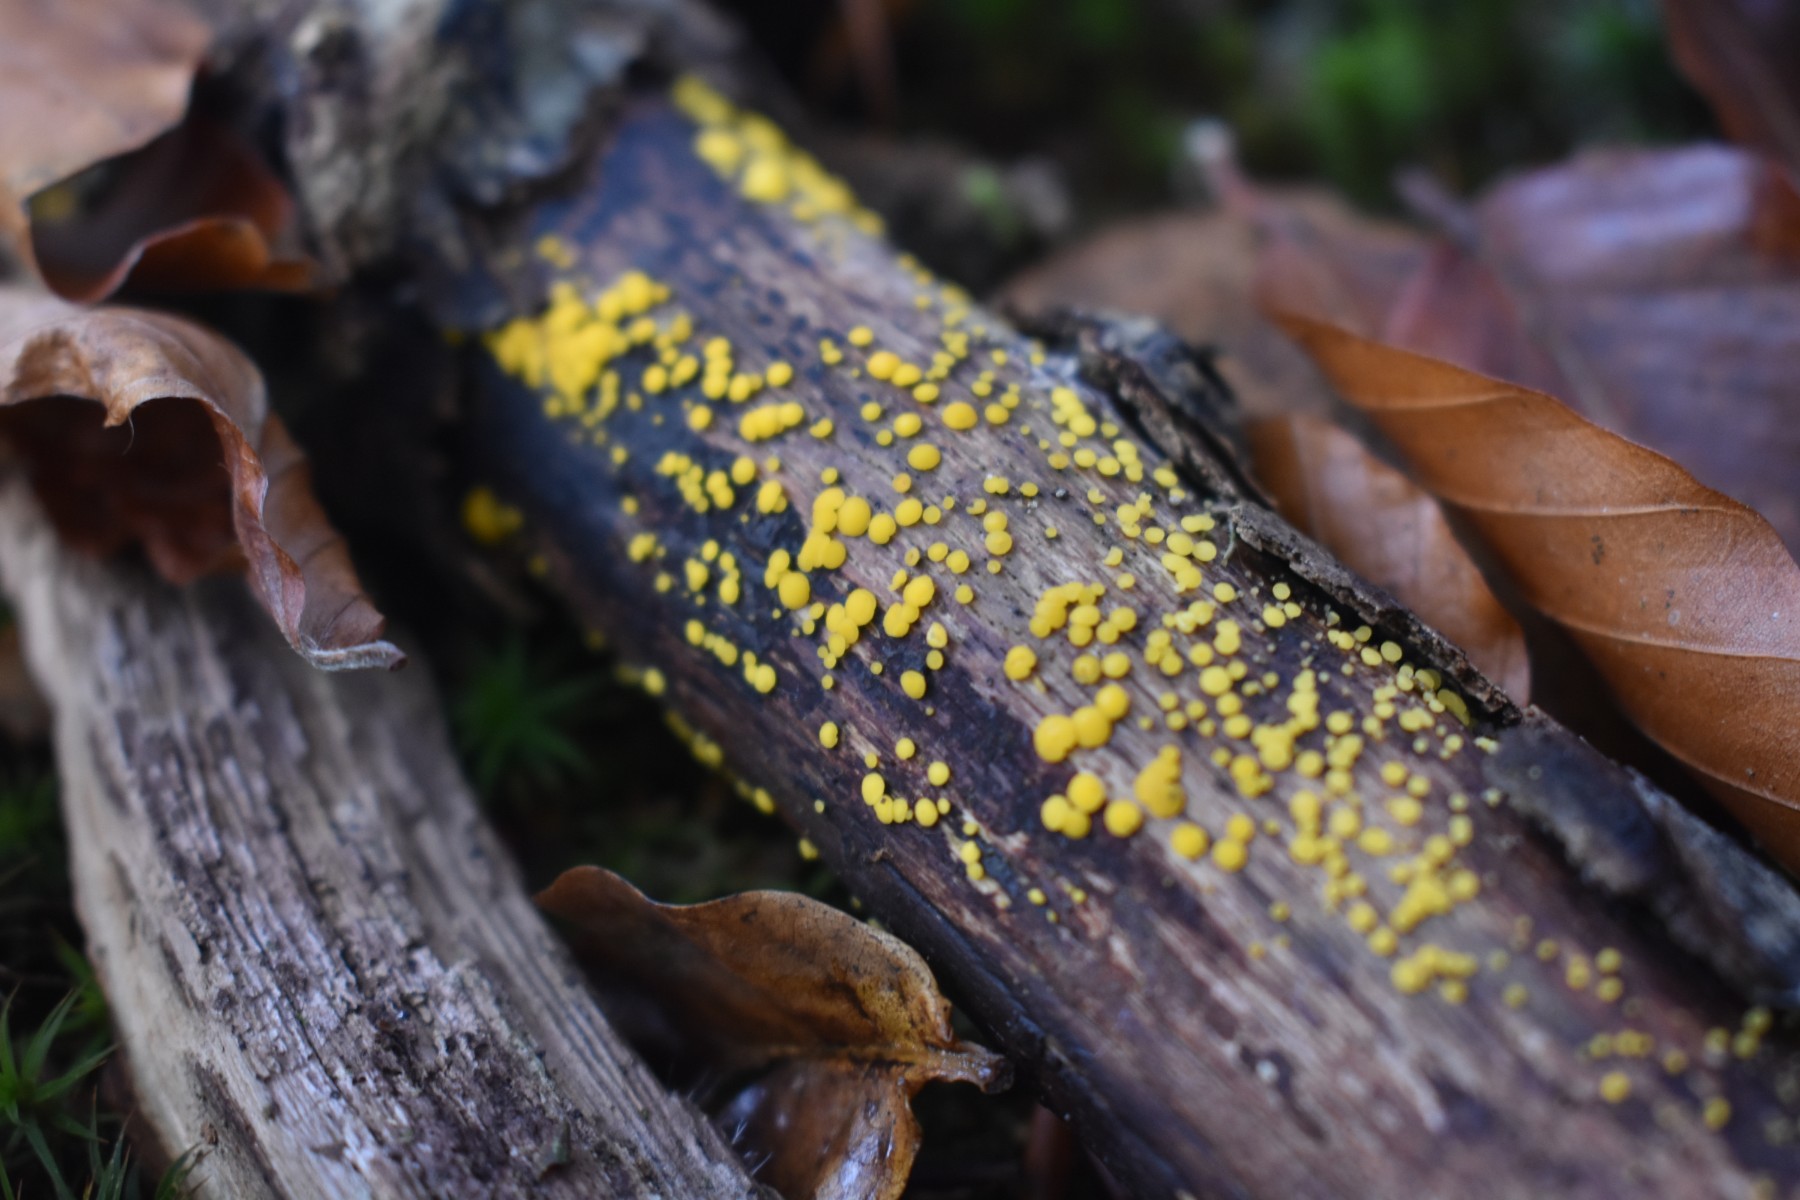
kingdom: Fungi
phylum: Ascomycota
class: Leotiomycetes
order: Helotiales
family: Pezizellaceae
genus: Calycina
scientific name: Calycina citrina
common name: almindelig gulskive
